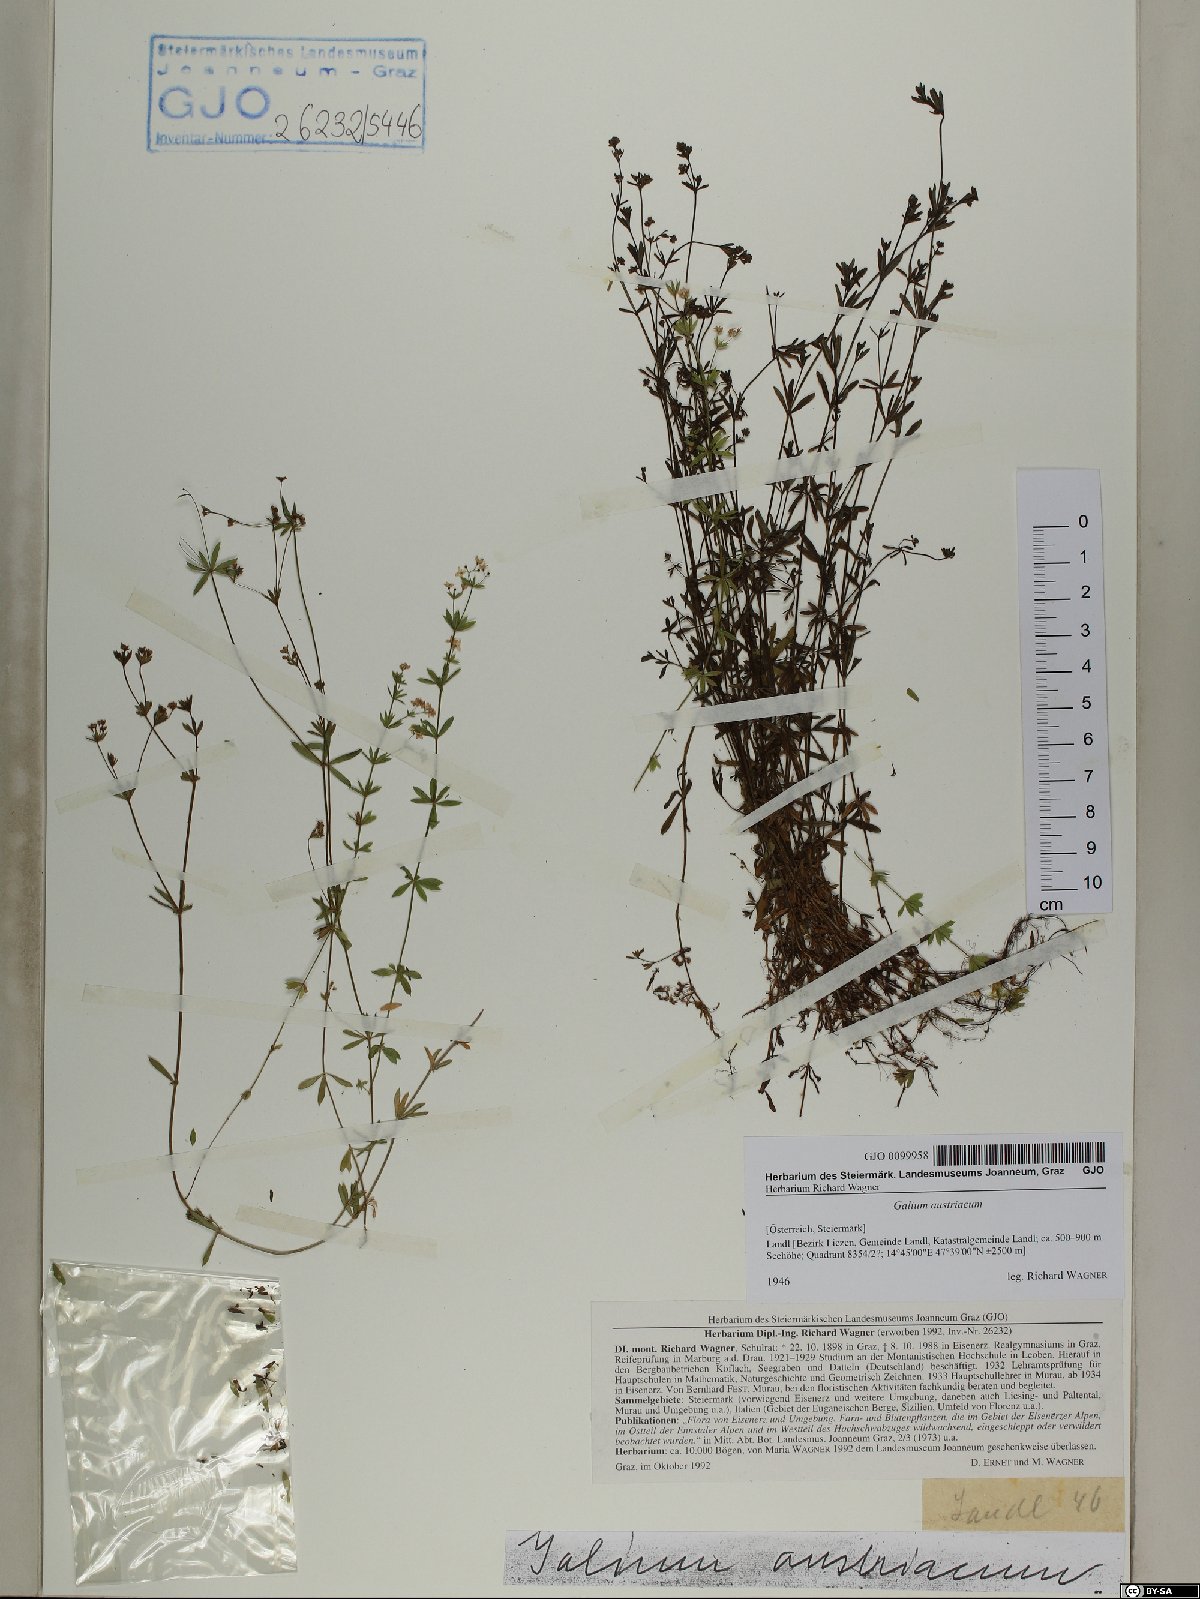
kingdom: Plantae
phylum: Tracheophyta
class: Magnoliopsida
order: Gentianales
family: Rubiaceae
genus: Galium
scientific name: Galium austriacum
